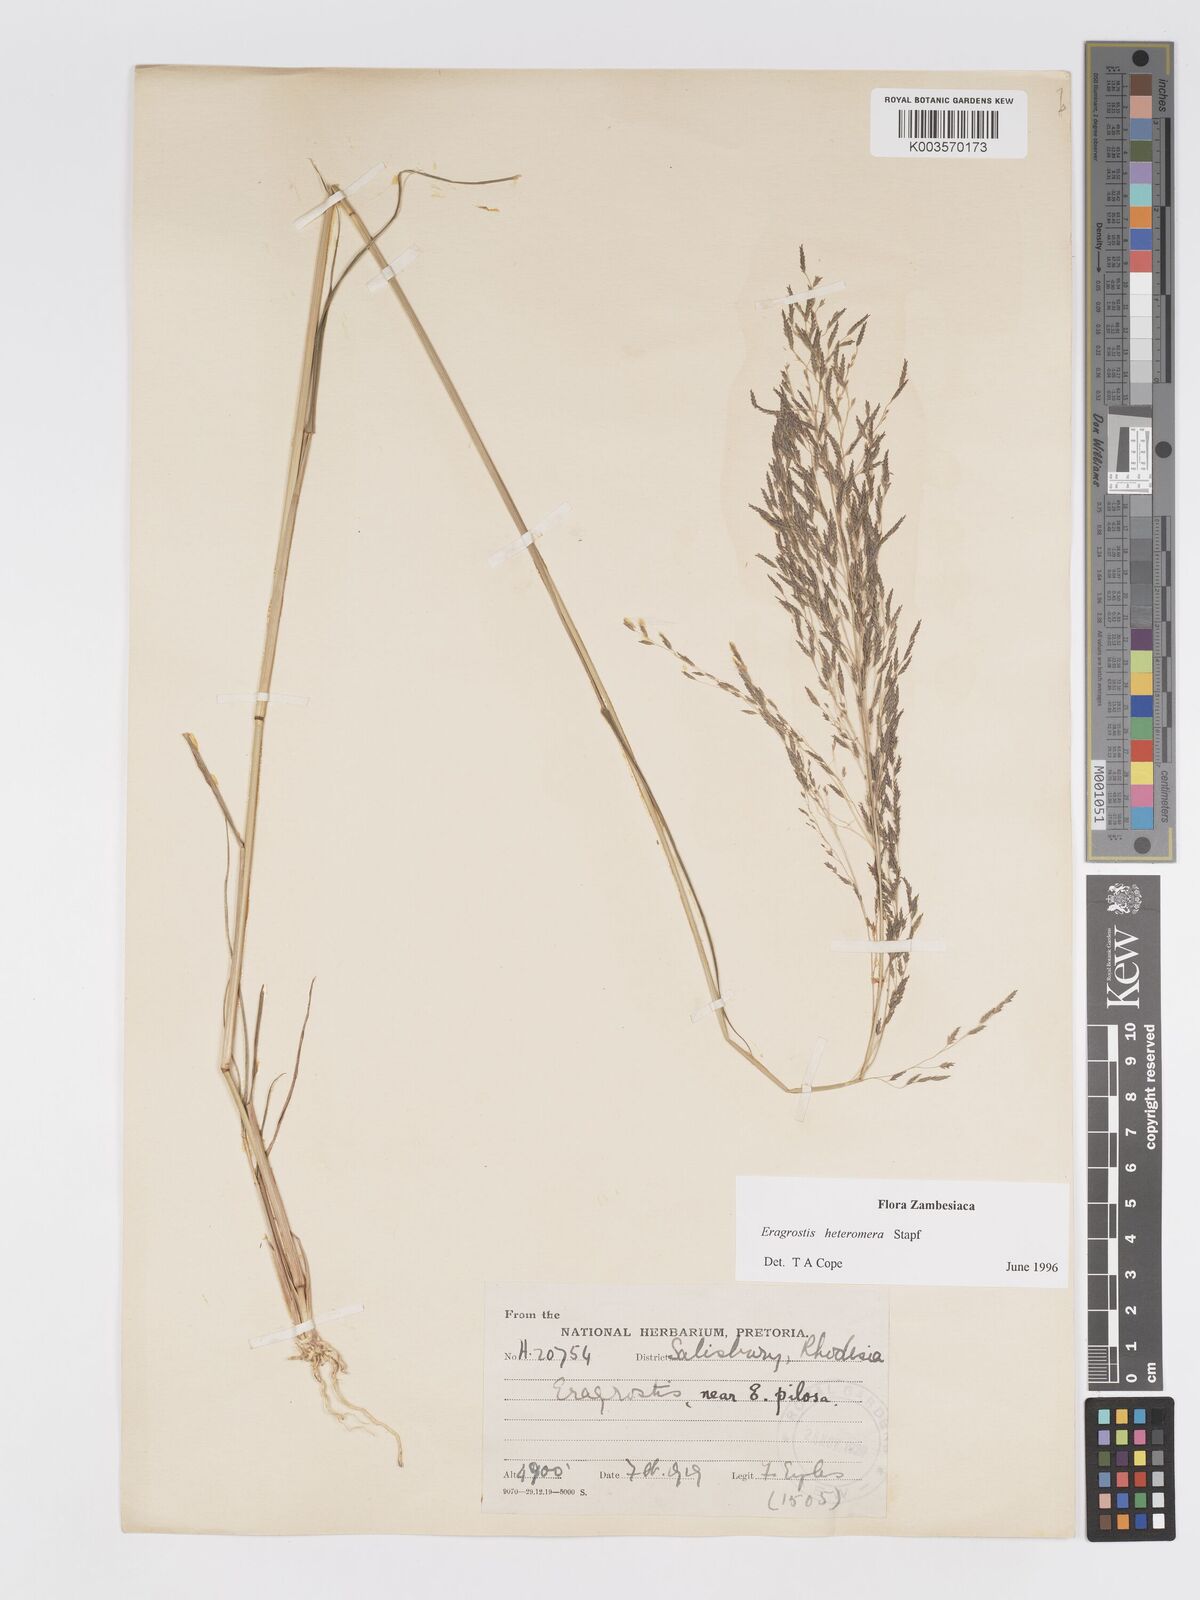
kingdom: Plantae
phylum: Tracheophyta
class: Liliopsida
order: Poales
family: Poaceae
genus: Eragrostis
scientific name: Eragrostis heteromera
